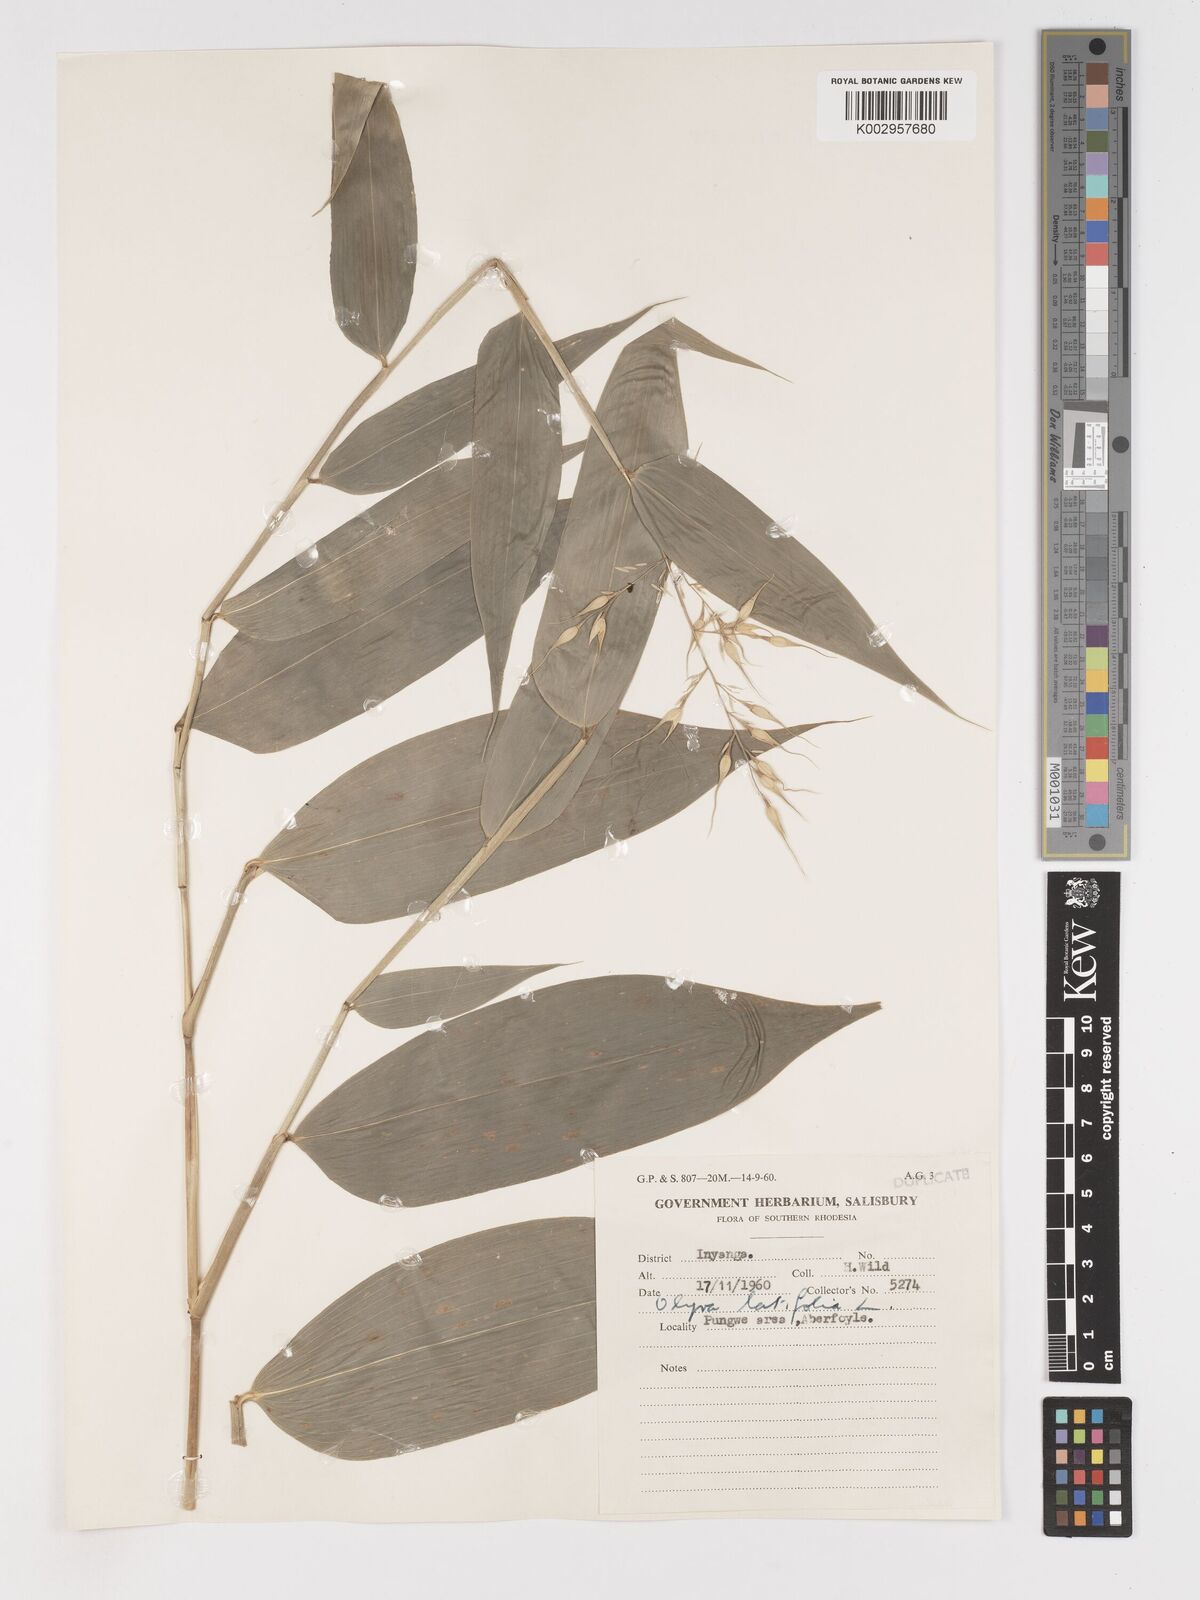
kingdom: Plantae
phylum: Tracheophyta
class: Liliopsida
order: Poales
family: Poaceae
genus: Olyra
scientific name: Olyra latifolia
